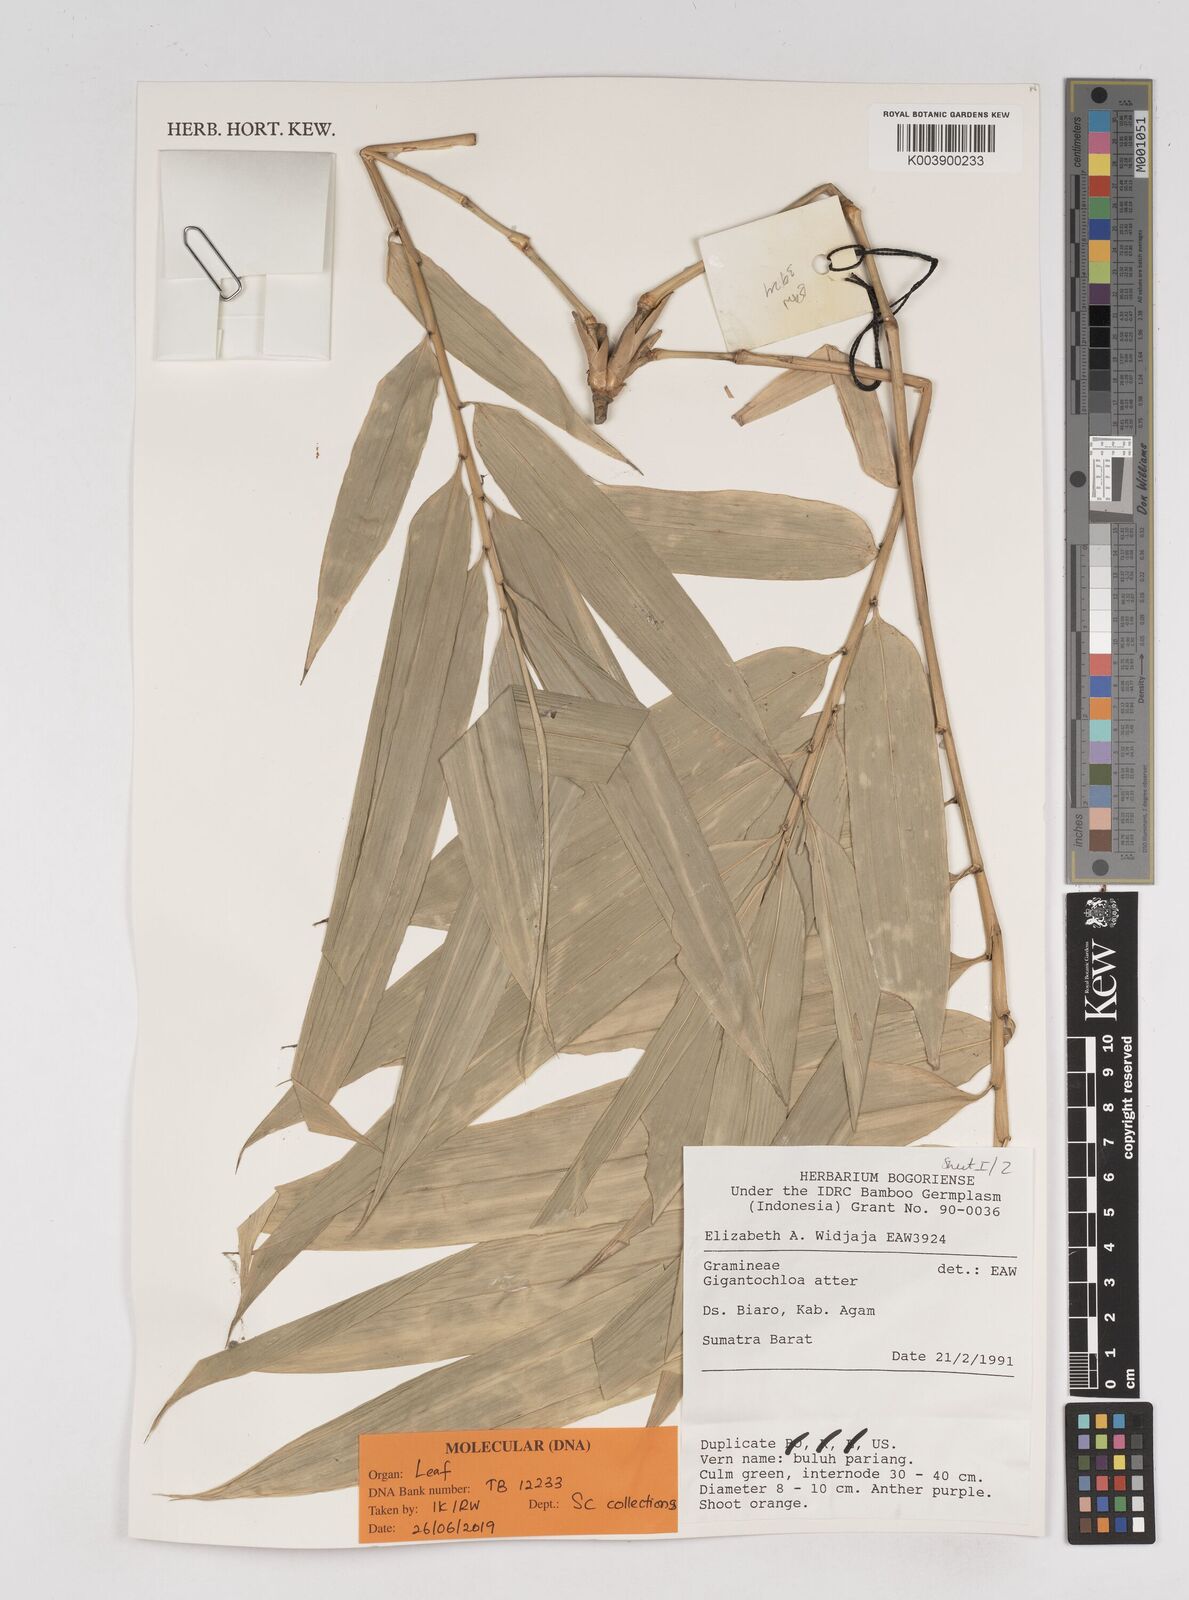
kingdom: Plantae
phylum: Tracheophyta
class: Liliopsida
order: Poales
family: Poaceae
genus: Gigantochloa
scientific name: Gigantochloa atter
